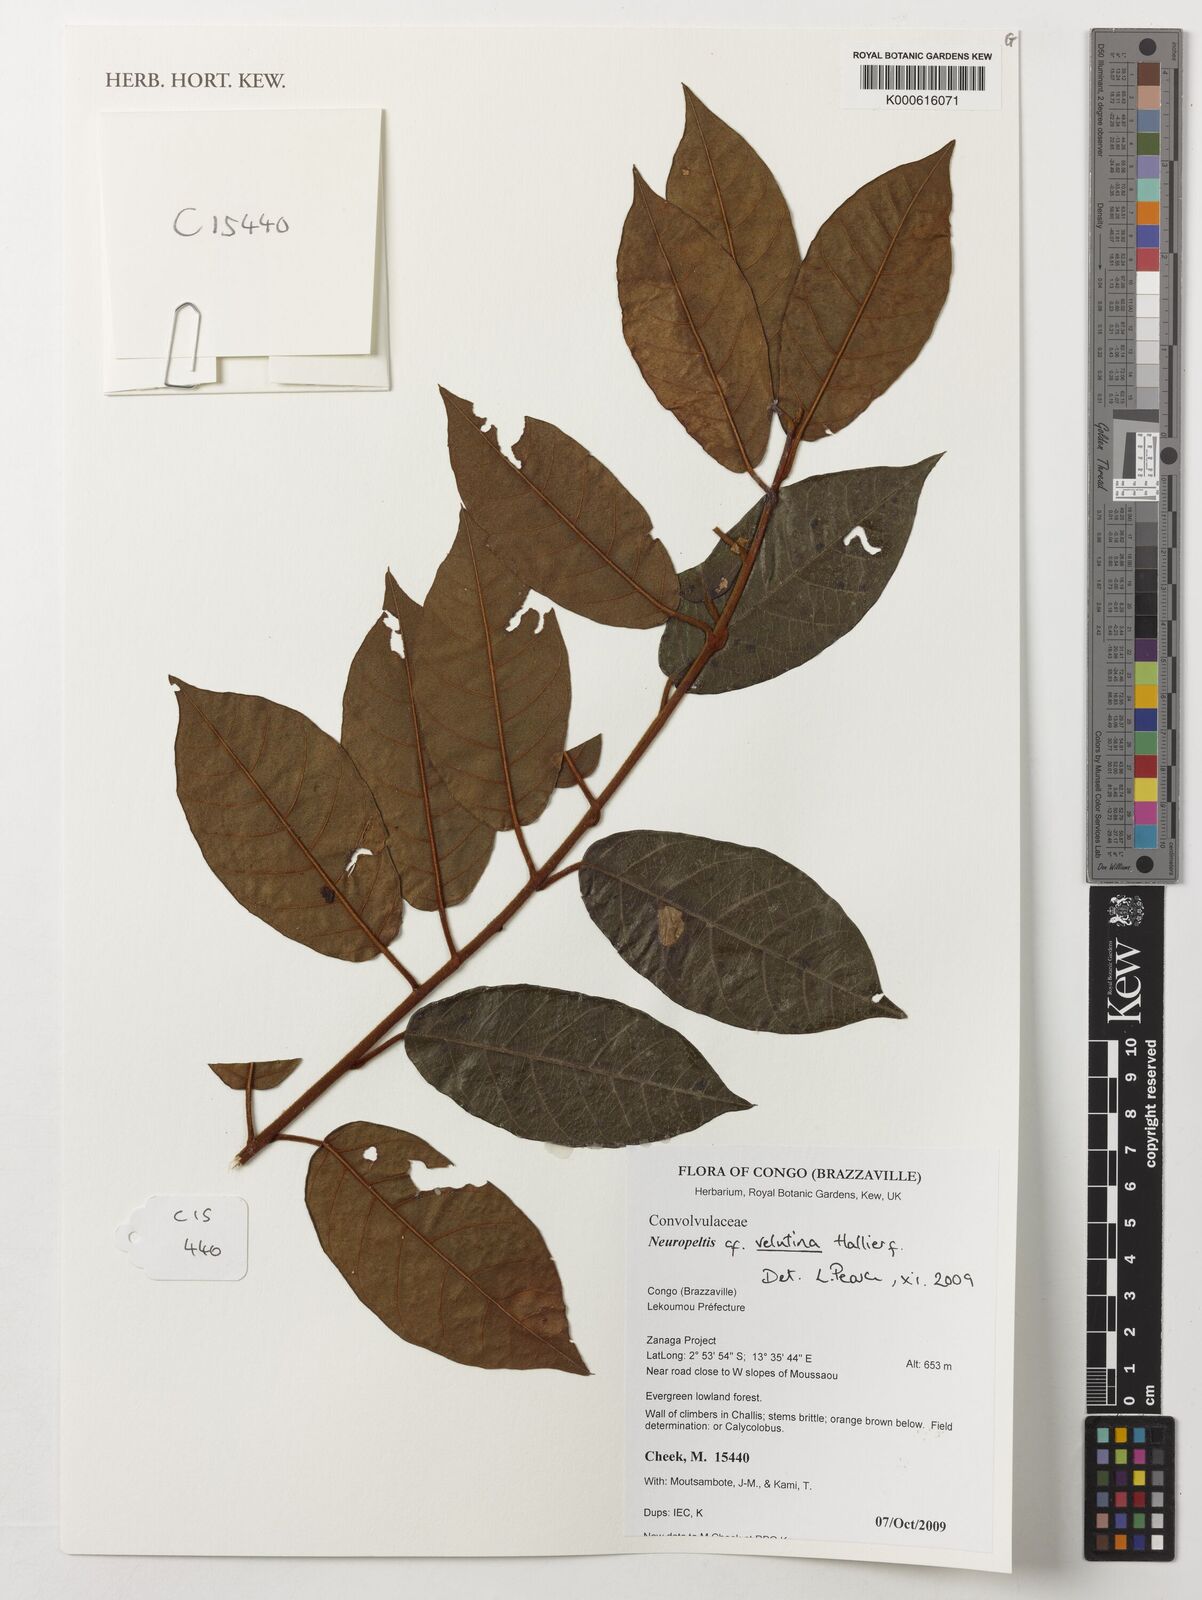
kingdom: Plantae
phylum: Tracheophyta
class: Magnoliopsida
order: Solanales
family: Convolvulaceae
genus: Neuropeltis
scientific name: Neuropeltis velutina
